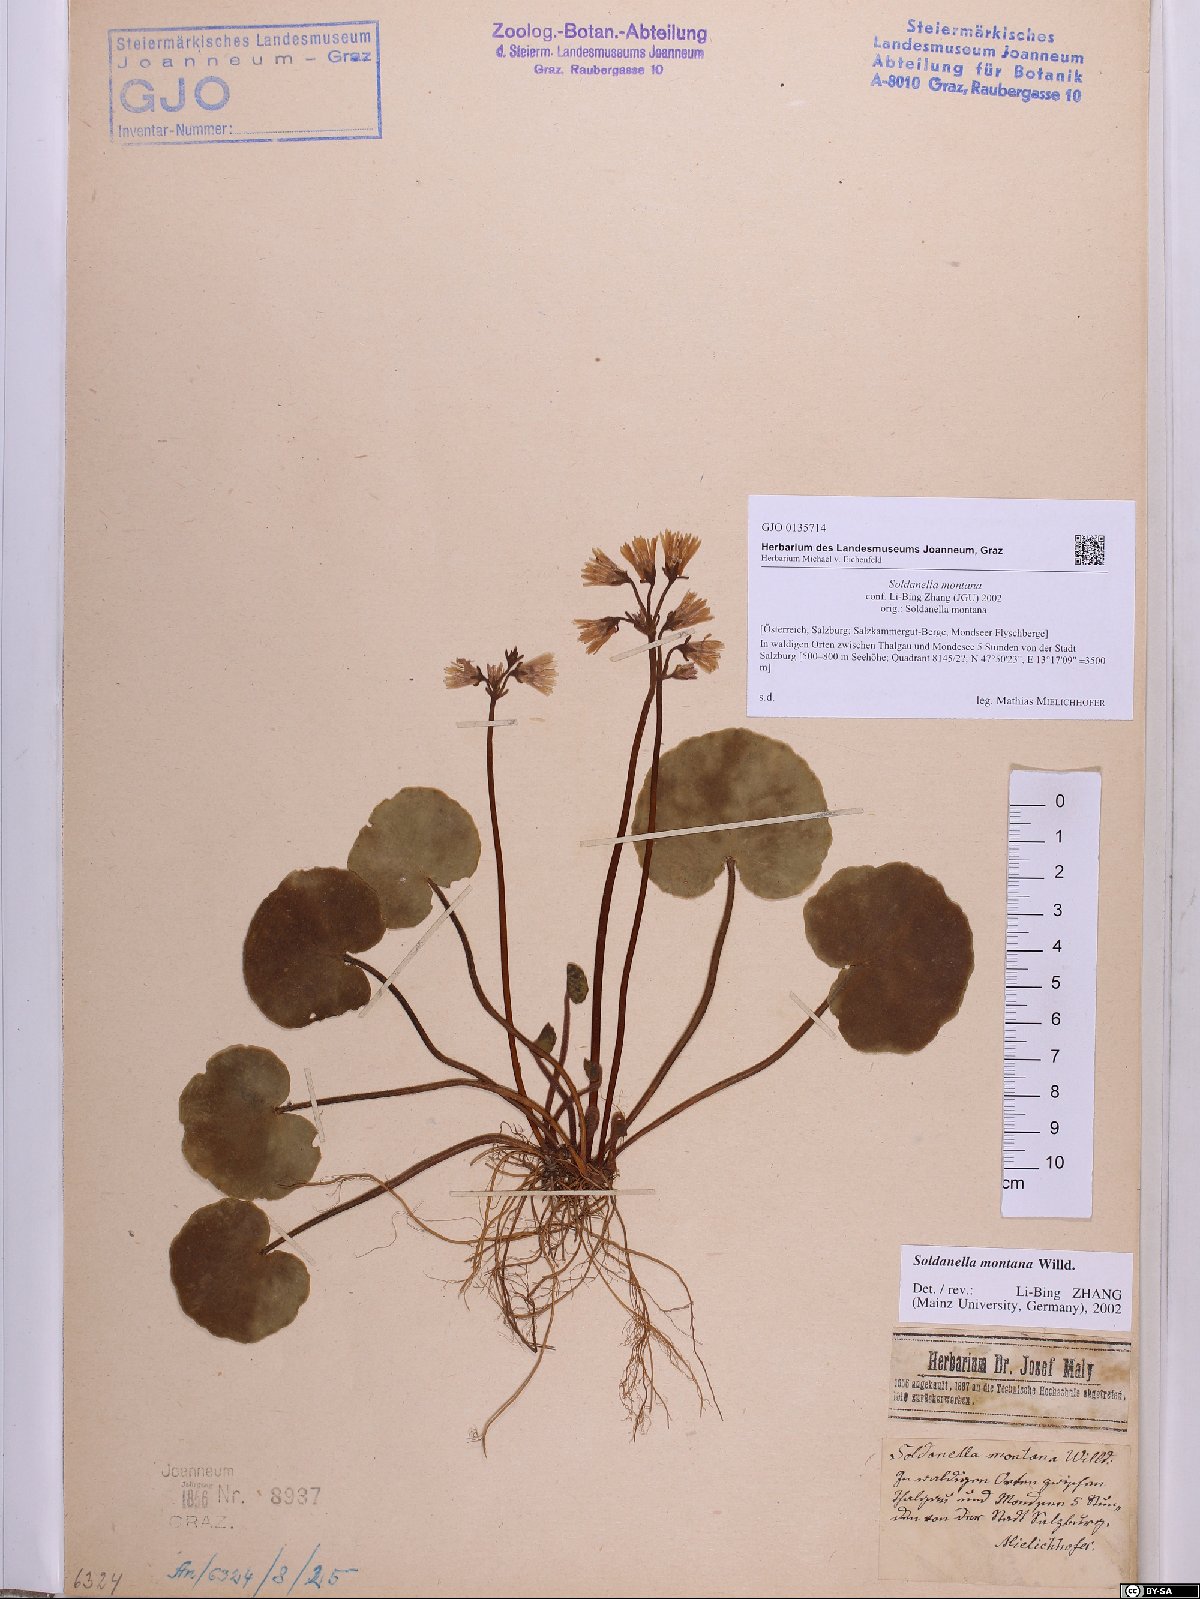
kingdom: Plantae
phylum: Tracheophyta
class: Magnoliopsida
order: Ericales
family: Primulaceae
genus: Soldanella
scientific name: Soldanella montana
